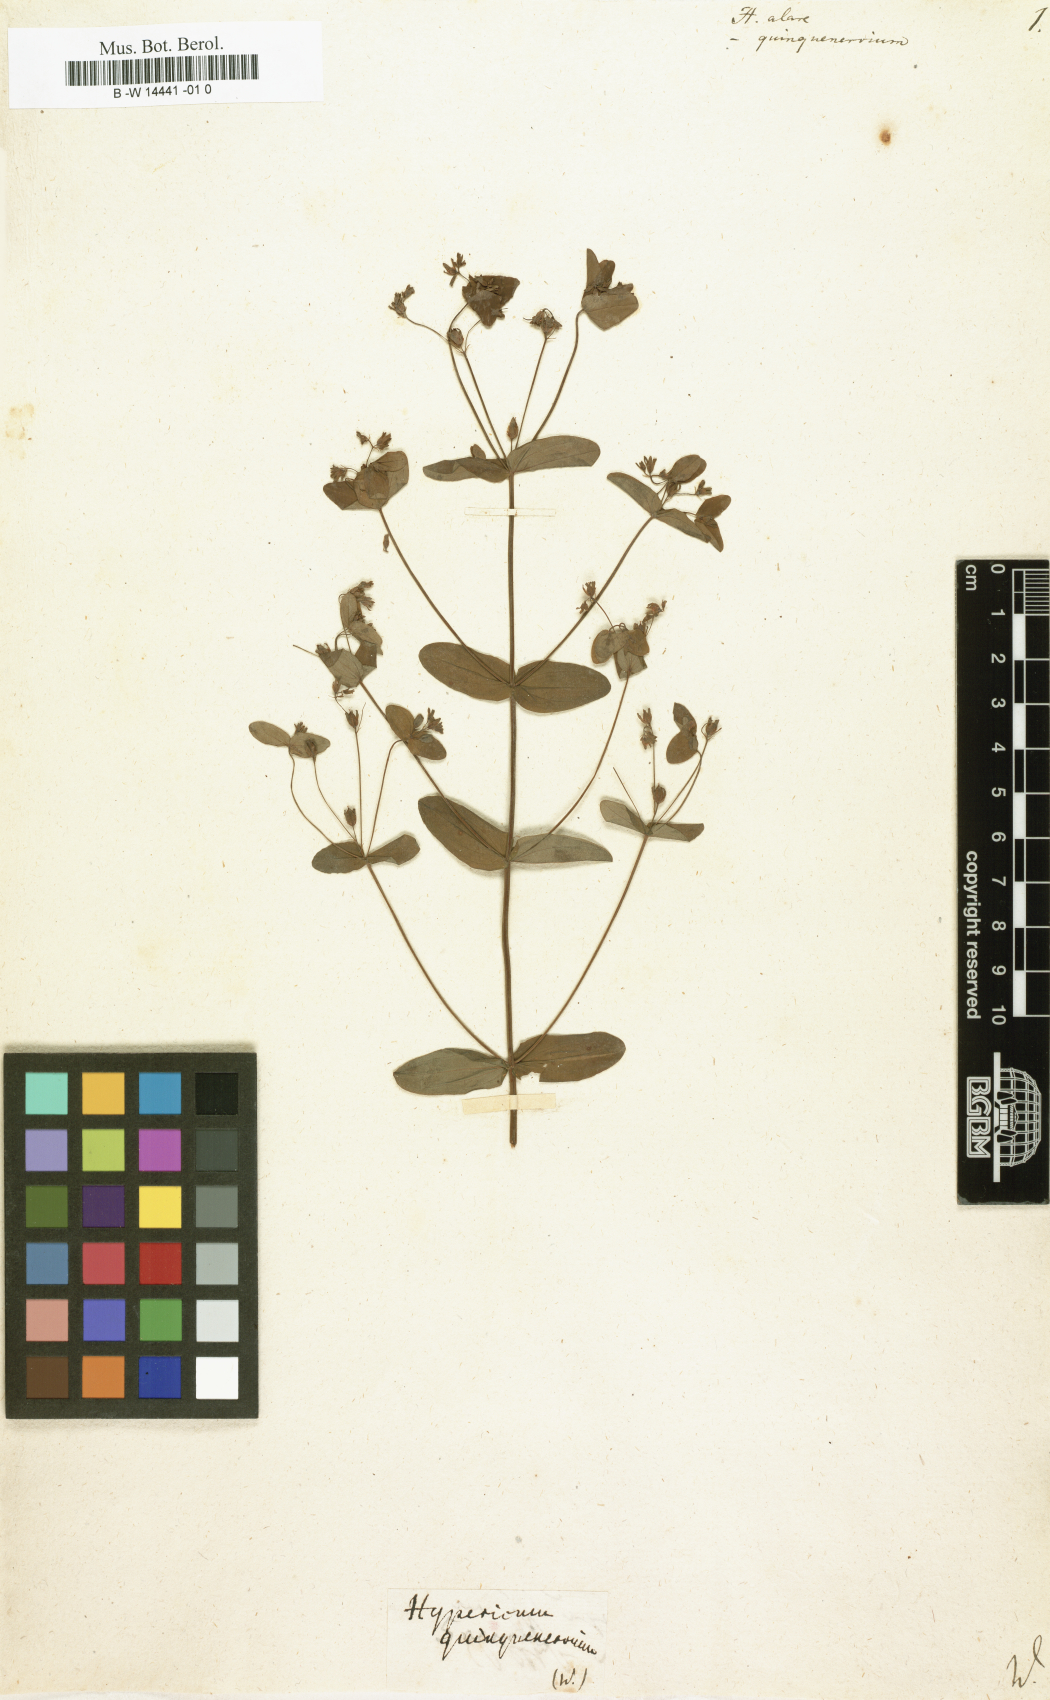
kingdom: Plantae
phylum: Tracheophyta
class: Magnoliopsida
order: Malpighiales
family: Hypericaceae
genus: Hypericum
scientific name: Hypericum tetrapterum
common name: Square-stalked st. john's-wort
